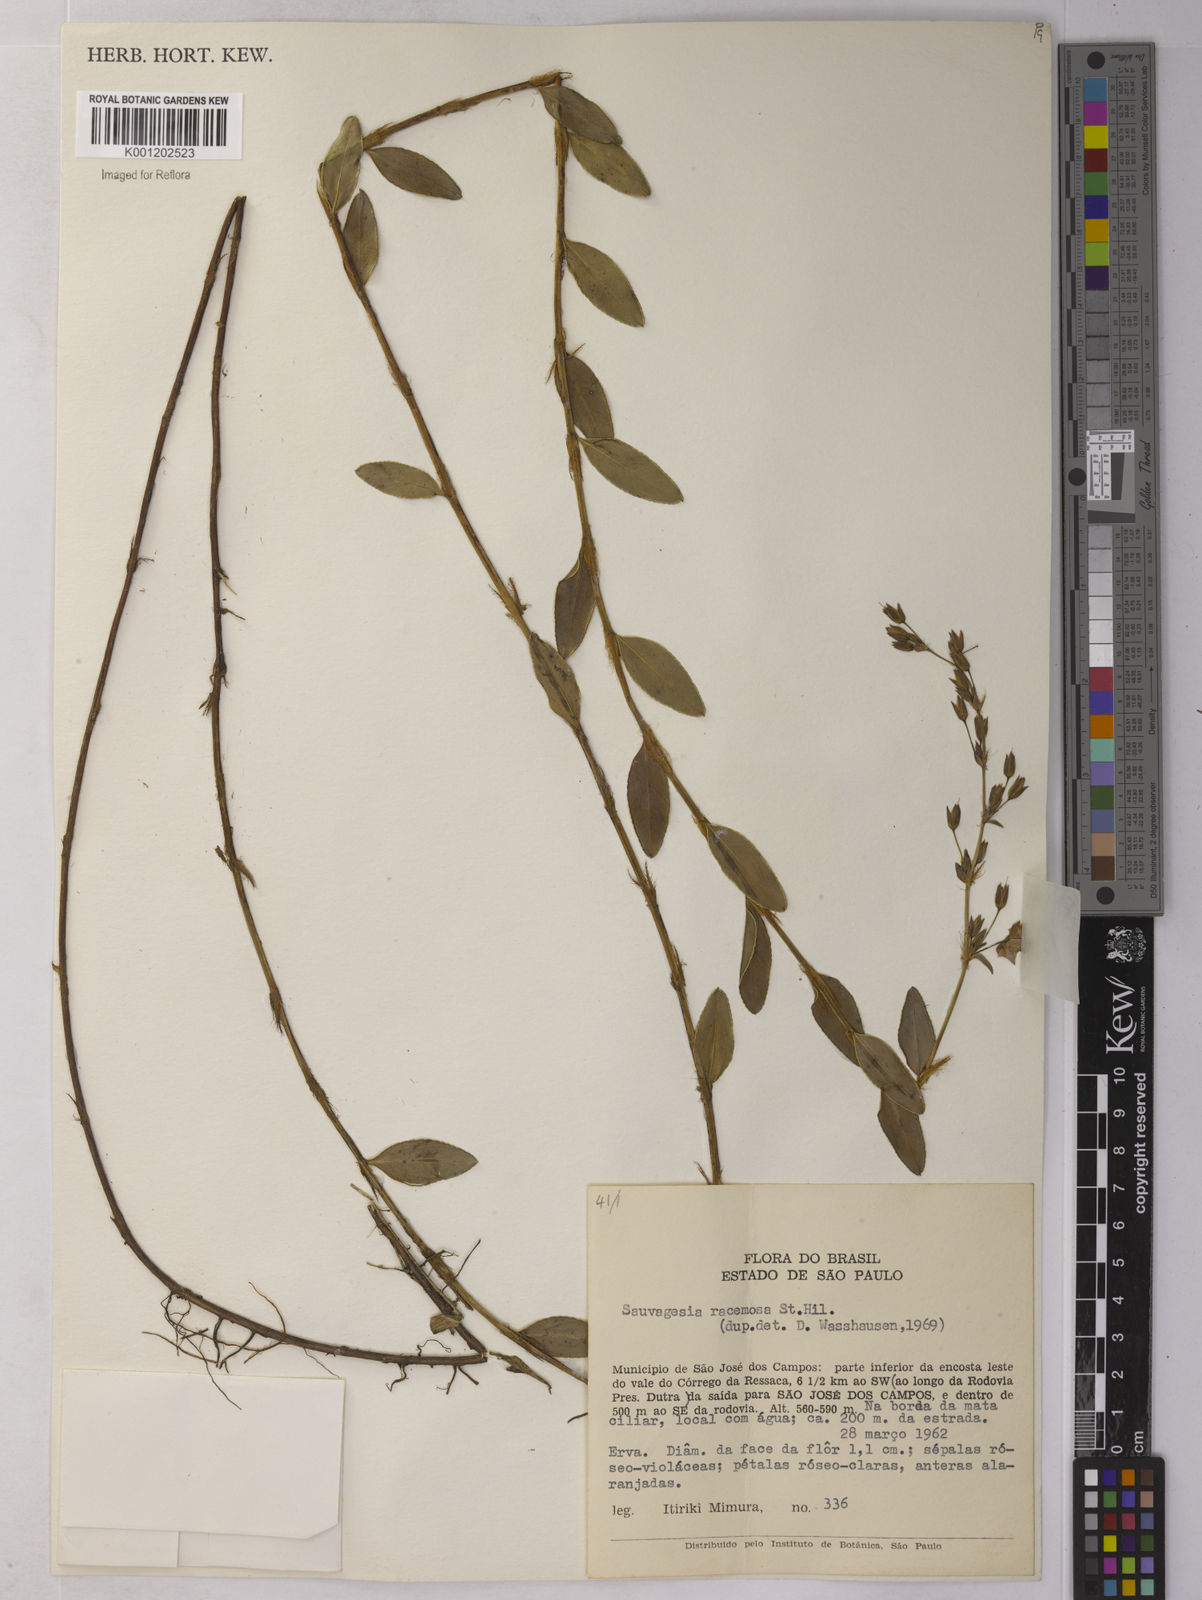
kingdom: Plantae
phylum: Tracheophyta
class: Magnoliopsida
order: Malpighiales
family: Ochnaceae
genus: Sauvagesia
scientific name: Sauvagesia racemosa
